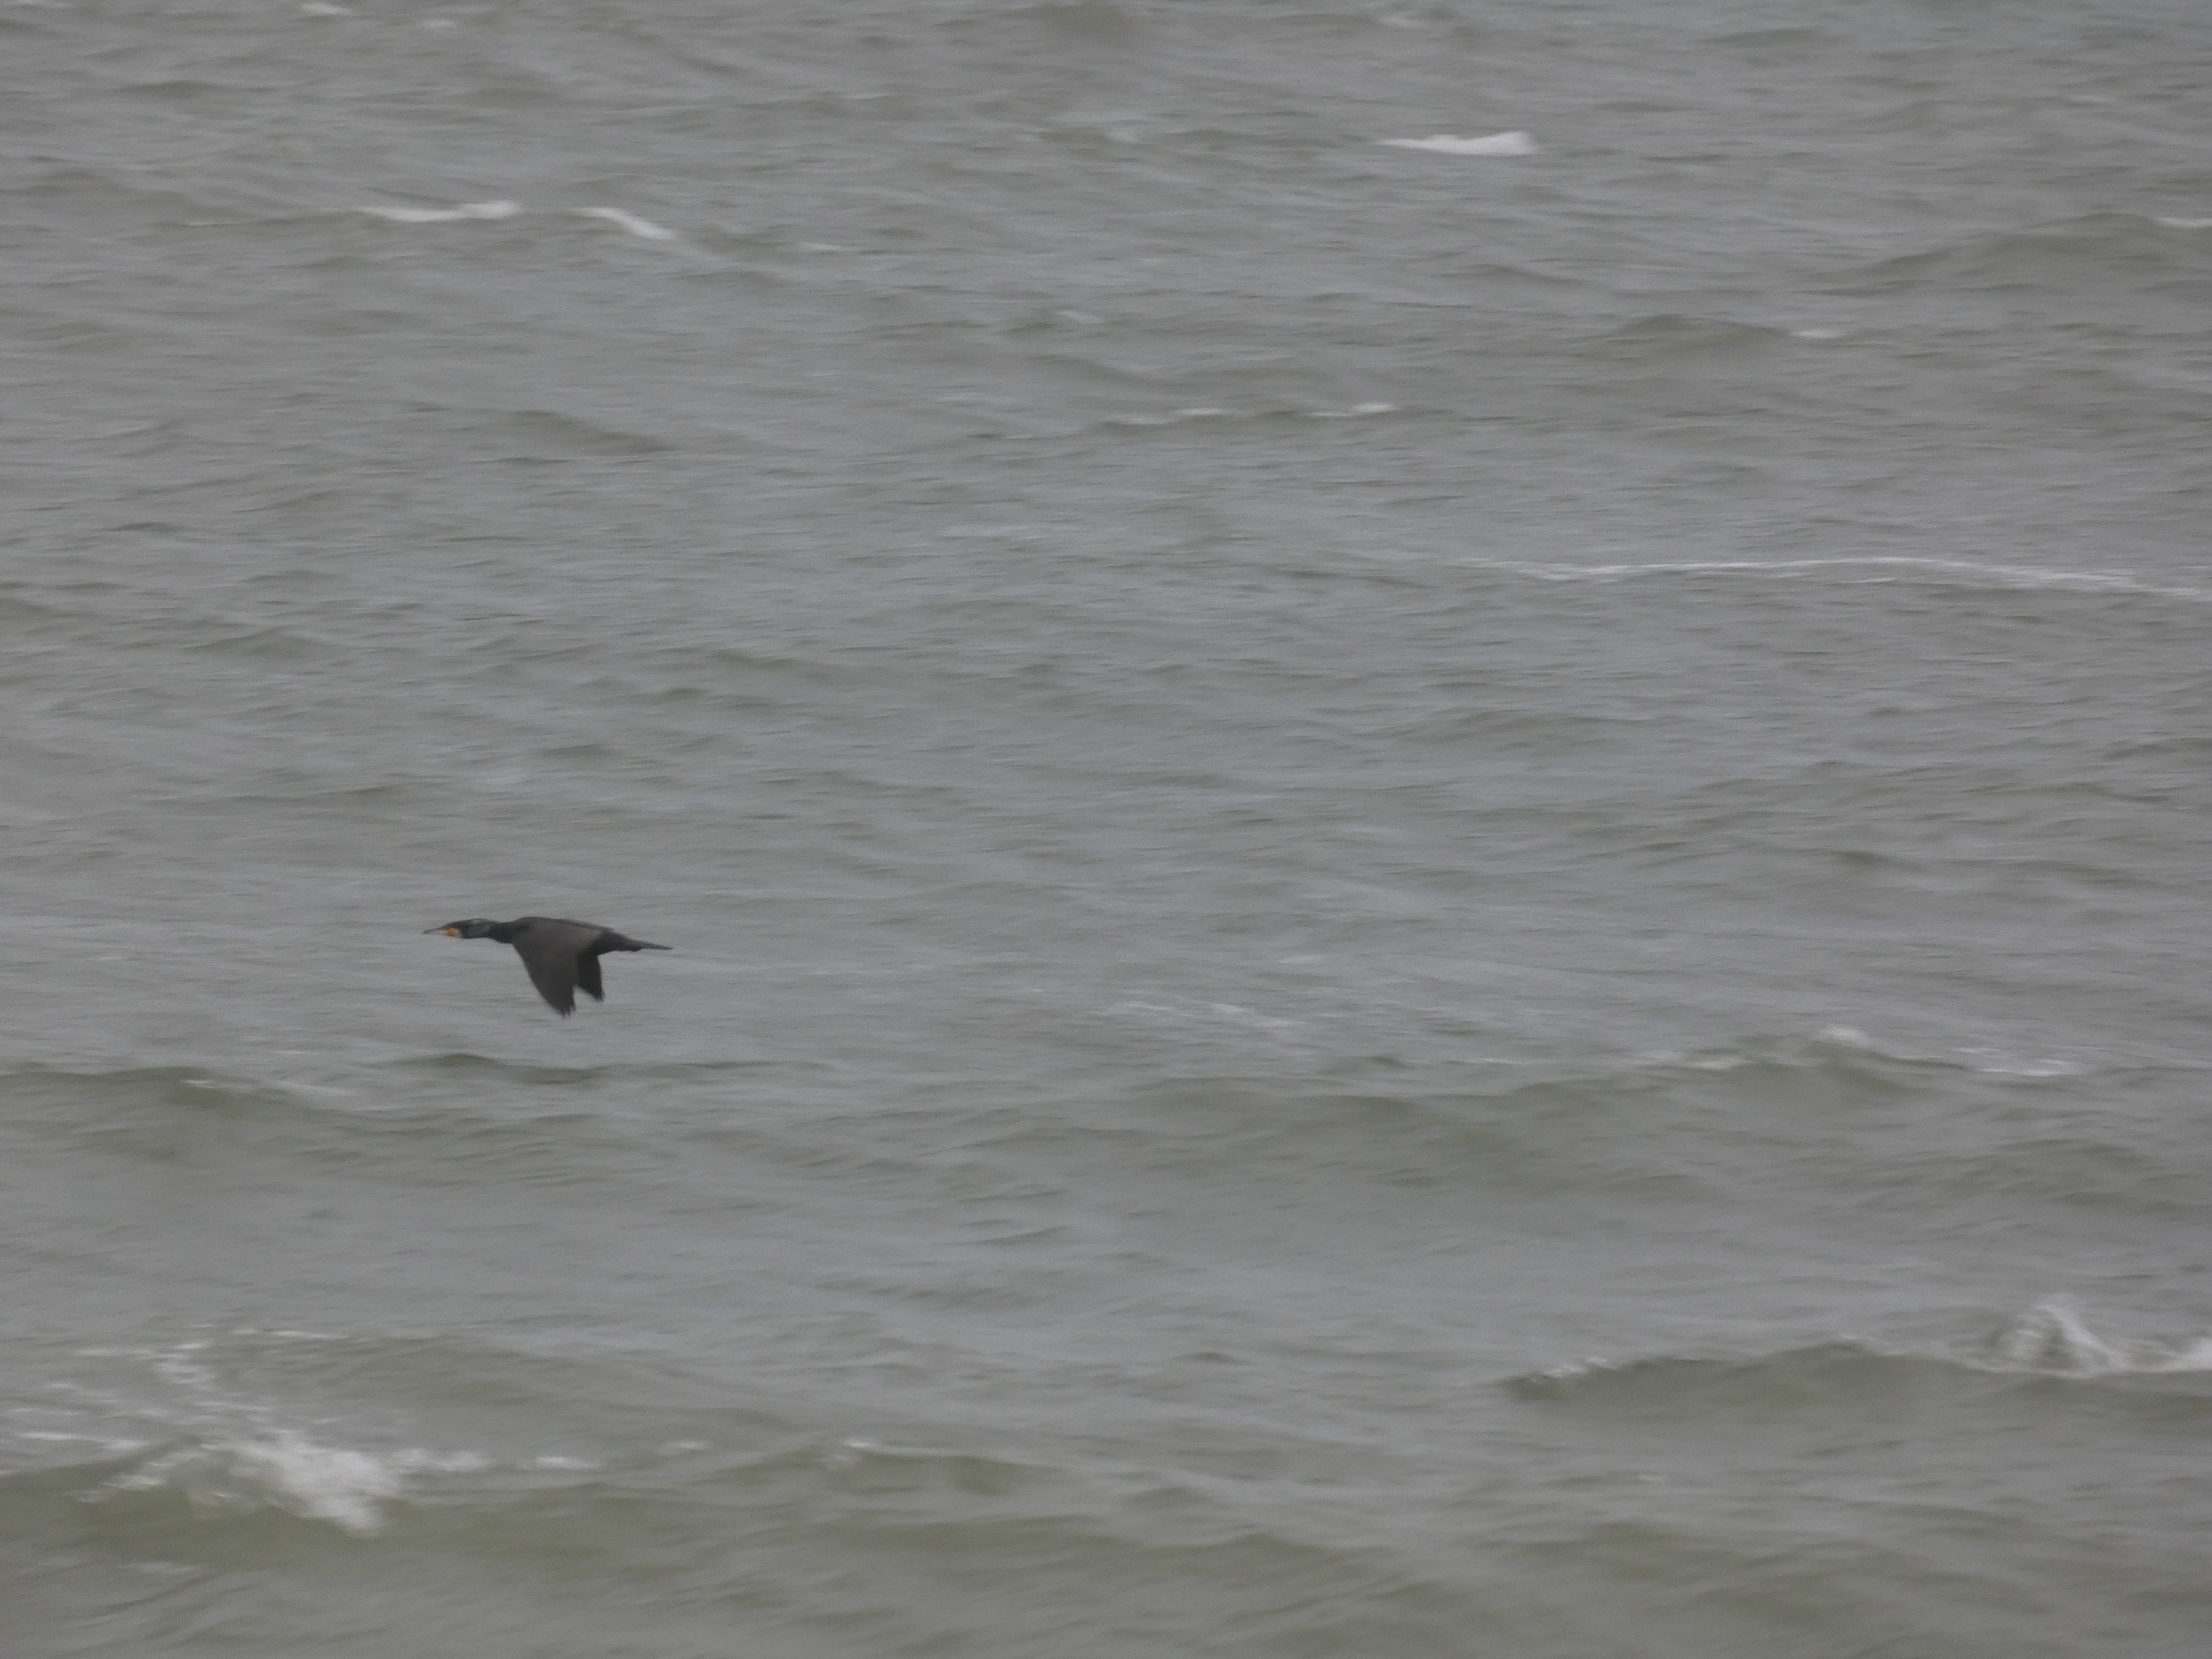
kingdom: Animalia
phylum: Chordata
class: Aves
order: Suliformes
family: Phalacrocoracidae
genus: Phalacrocorax
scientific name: Phalacrocorax carbo
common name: Skarv
